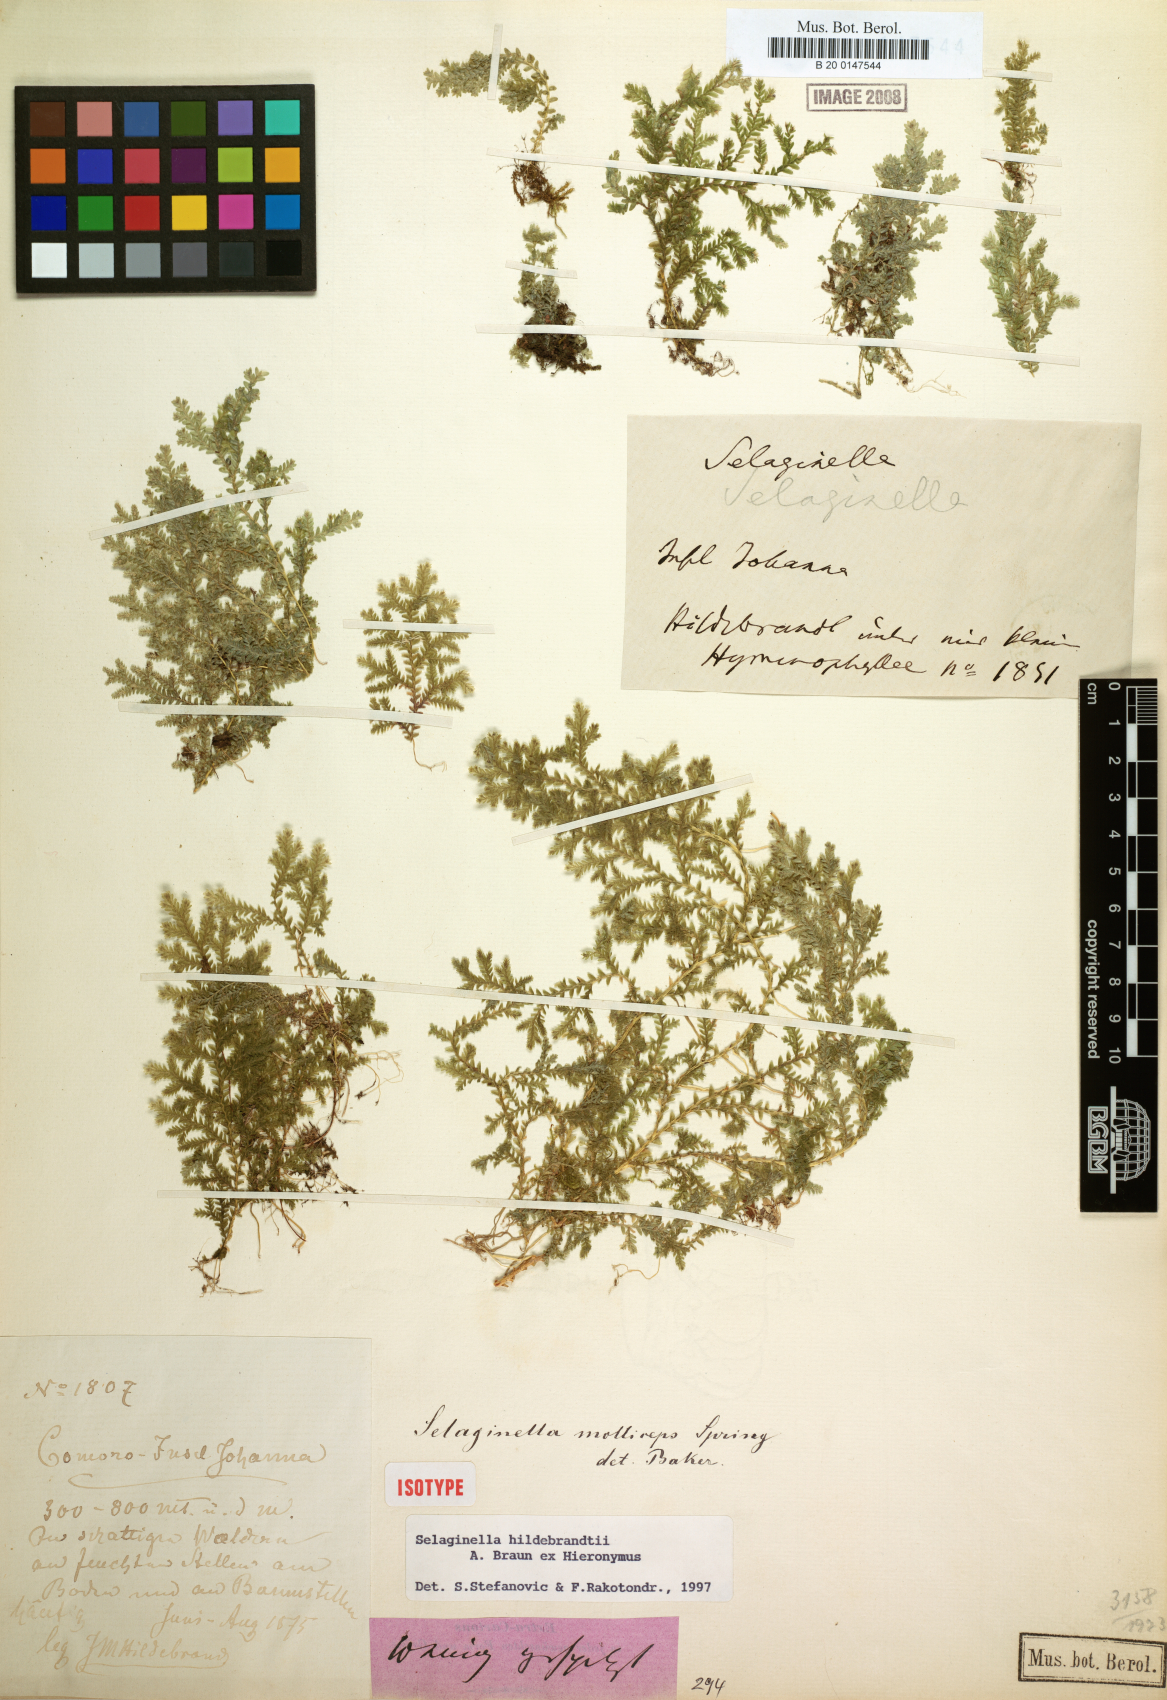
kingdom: Plantae
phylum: Tracheophyta
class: Lycopodiopsida
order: Selaginellales
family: Selaginellaceae
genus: Selaginella
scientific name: Selaginella hildebrandtii
